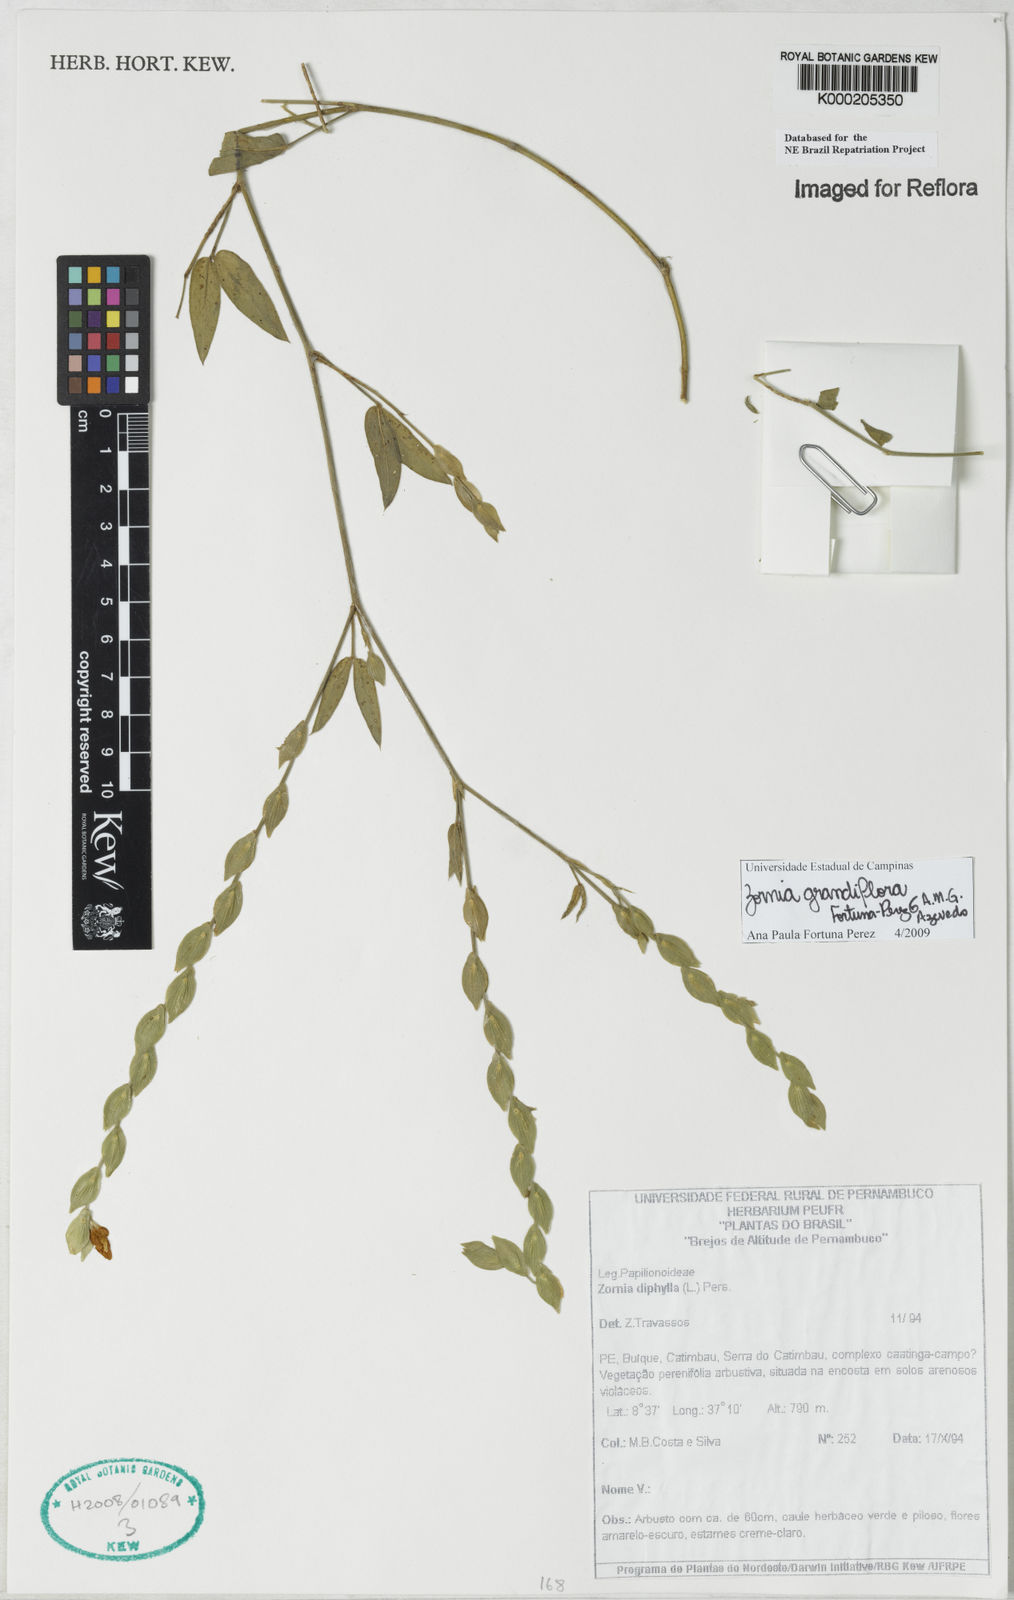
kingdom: Plantae
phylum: Tracheophyta
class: Magnoliopsida
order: Fabales
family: Fabaceae
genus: Zornia
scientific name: Zornia diphylla
